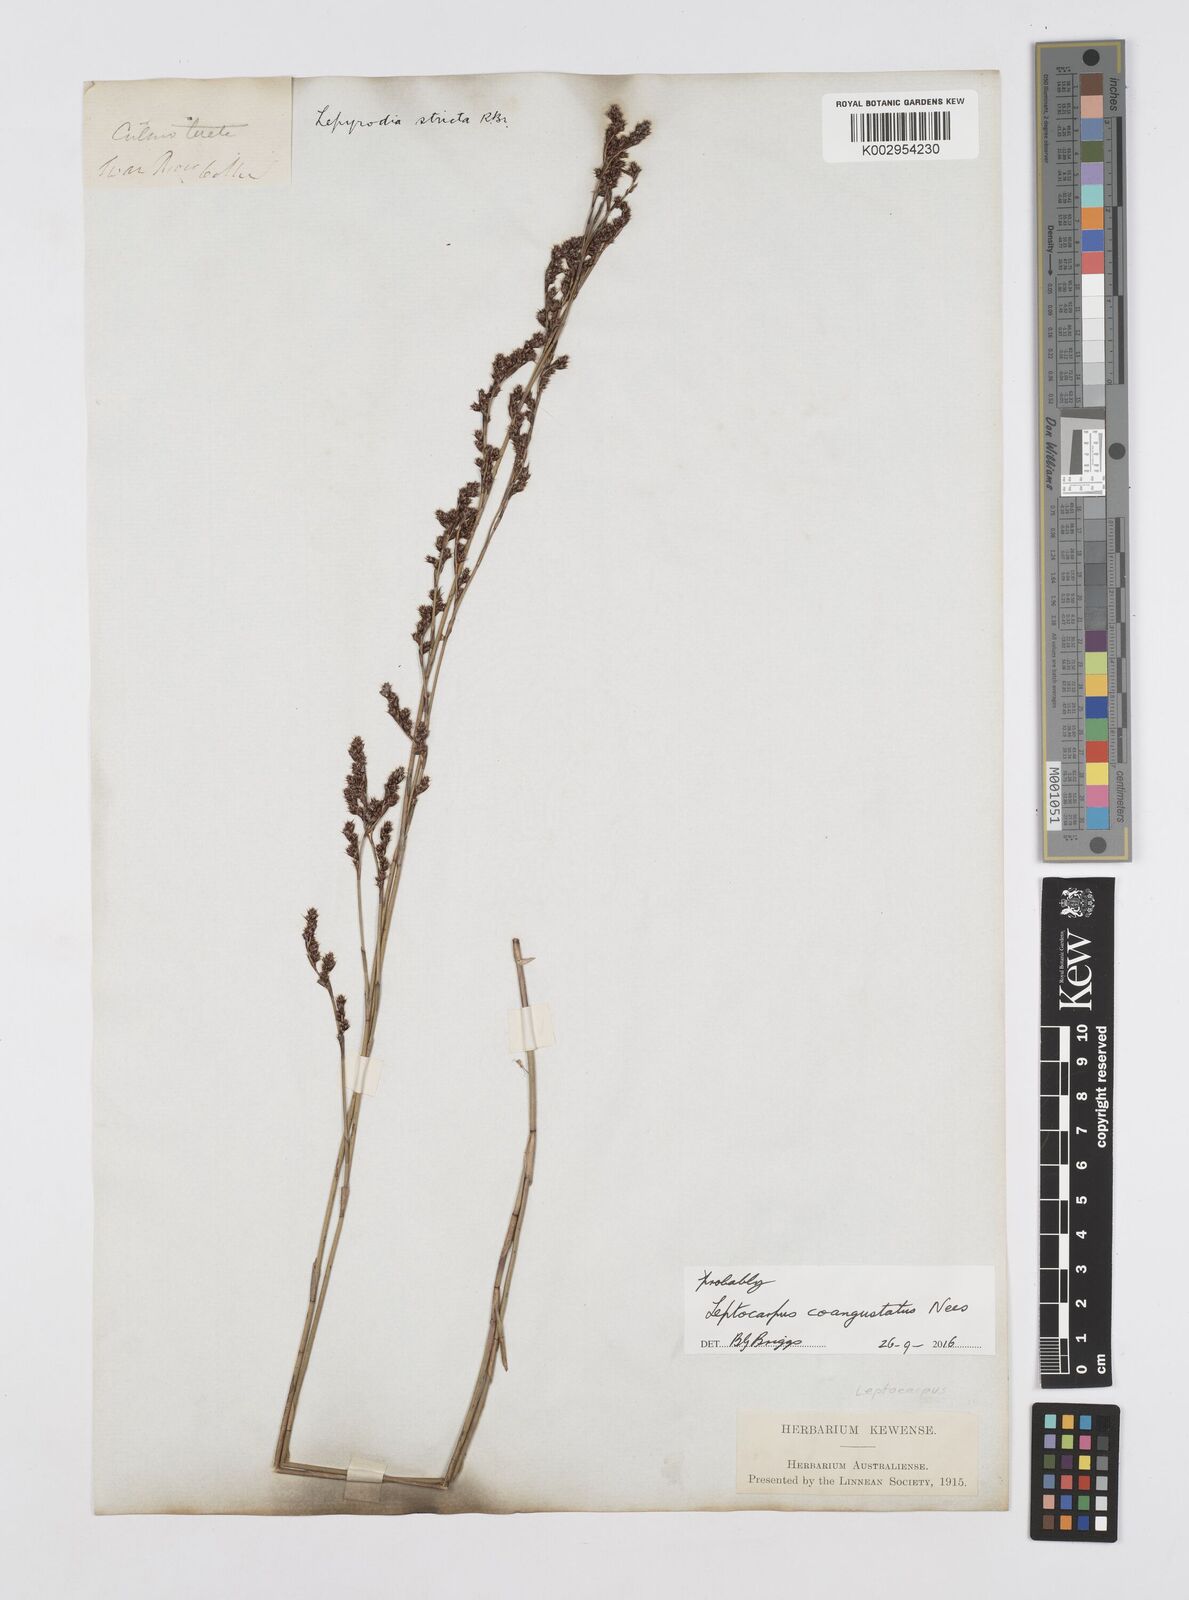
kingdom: Plantae
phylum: Tracheophyta
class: Liliopsida
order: Poales
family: Restionaceae
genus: Leptocarpus
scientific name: Leptocarpus coangustatus
